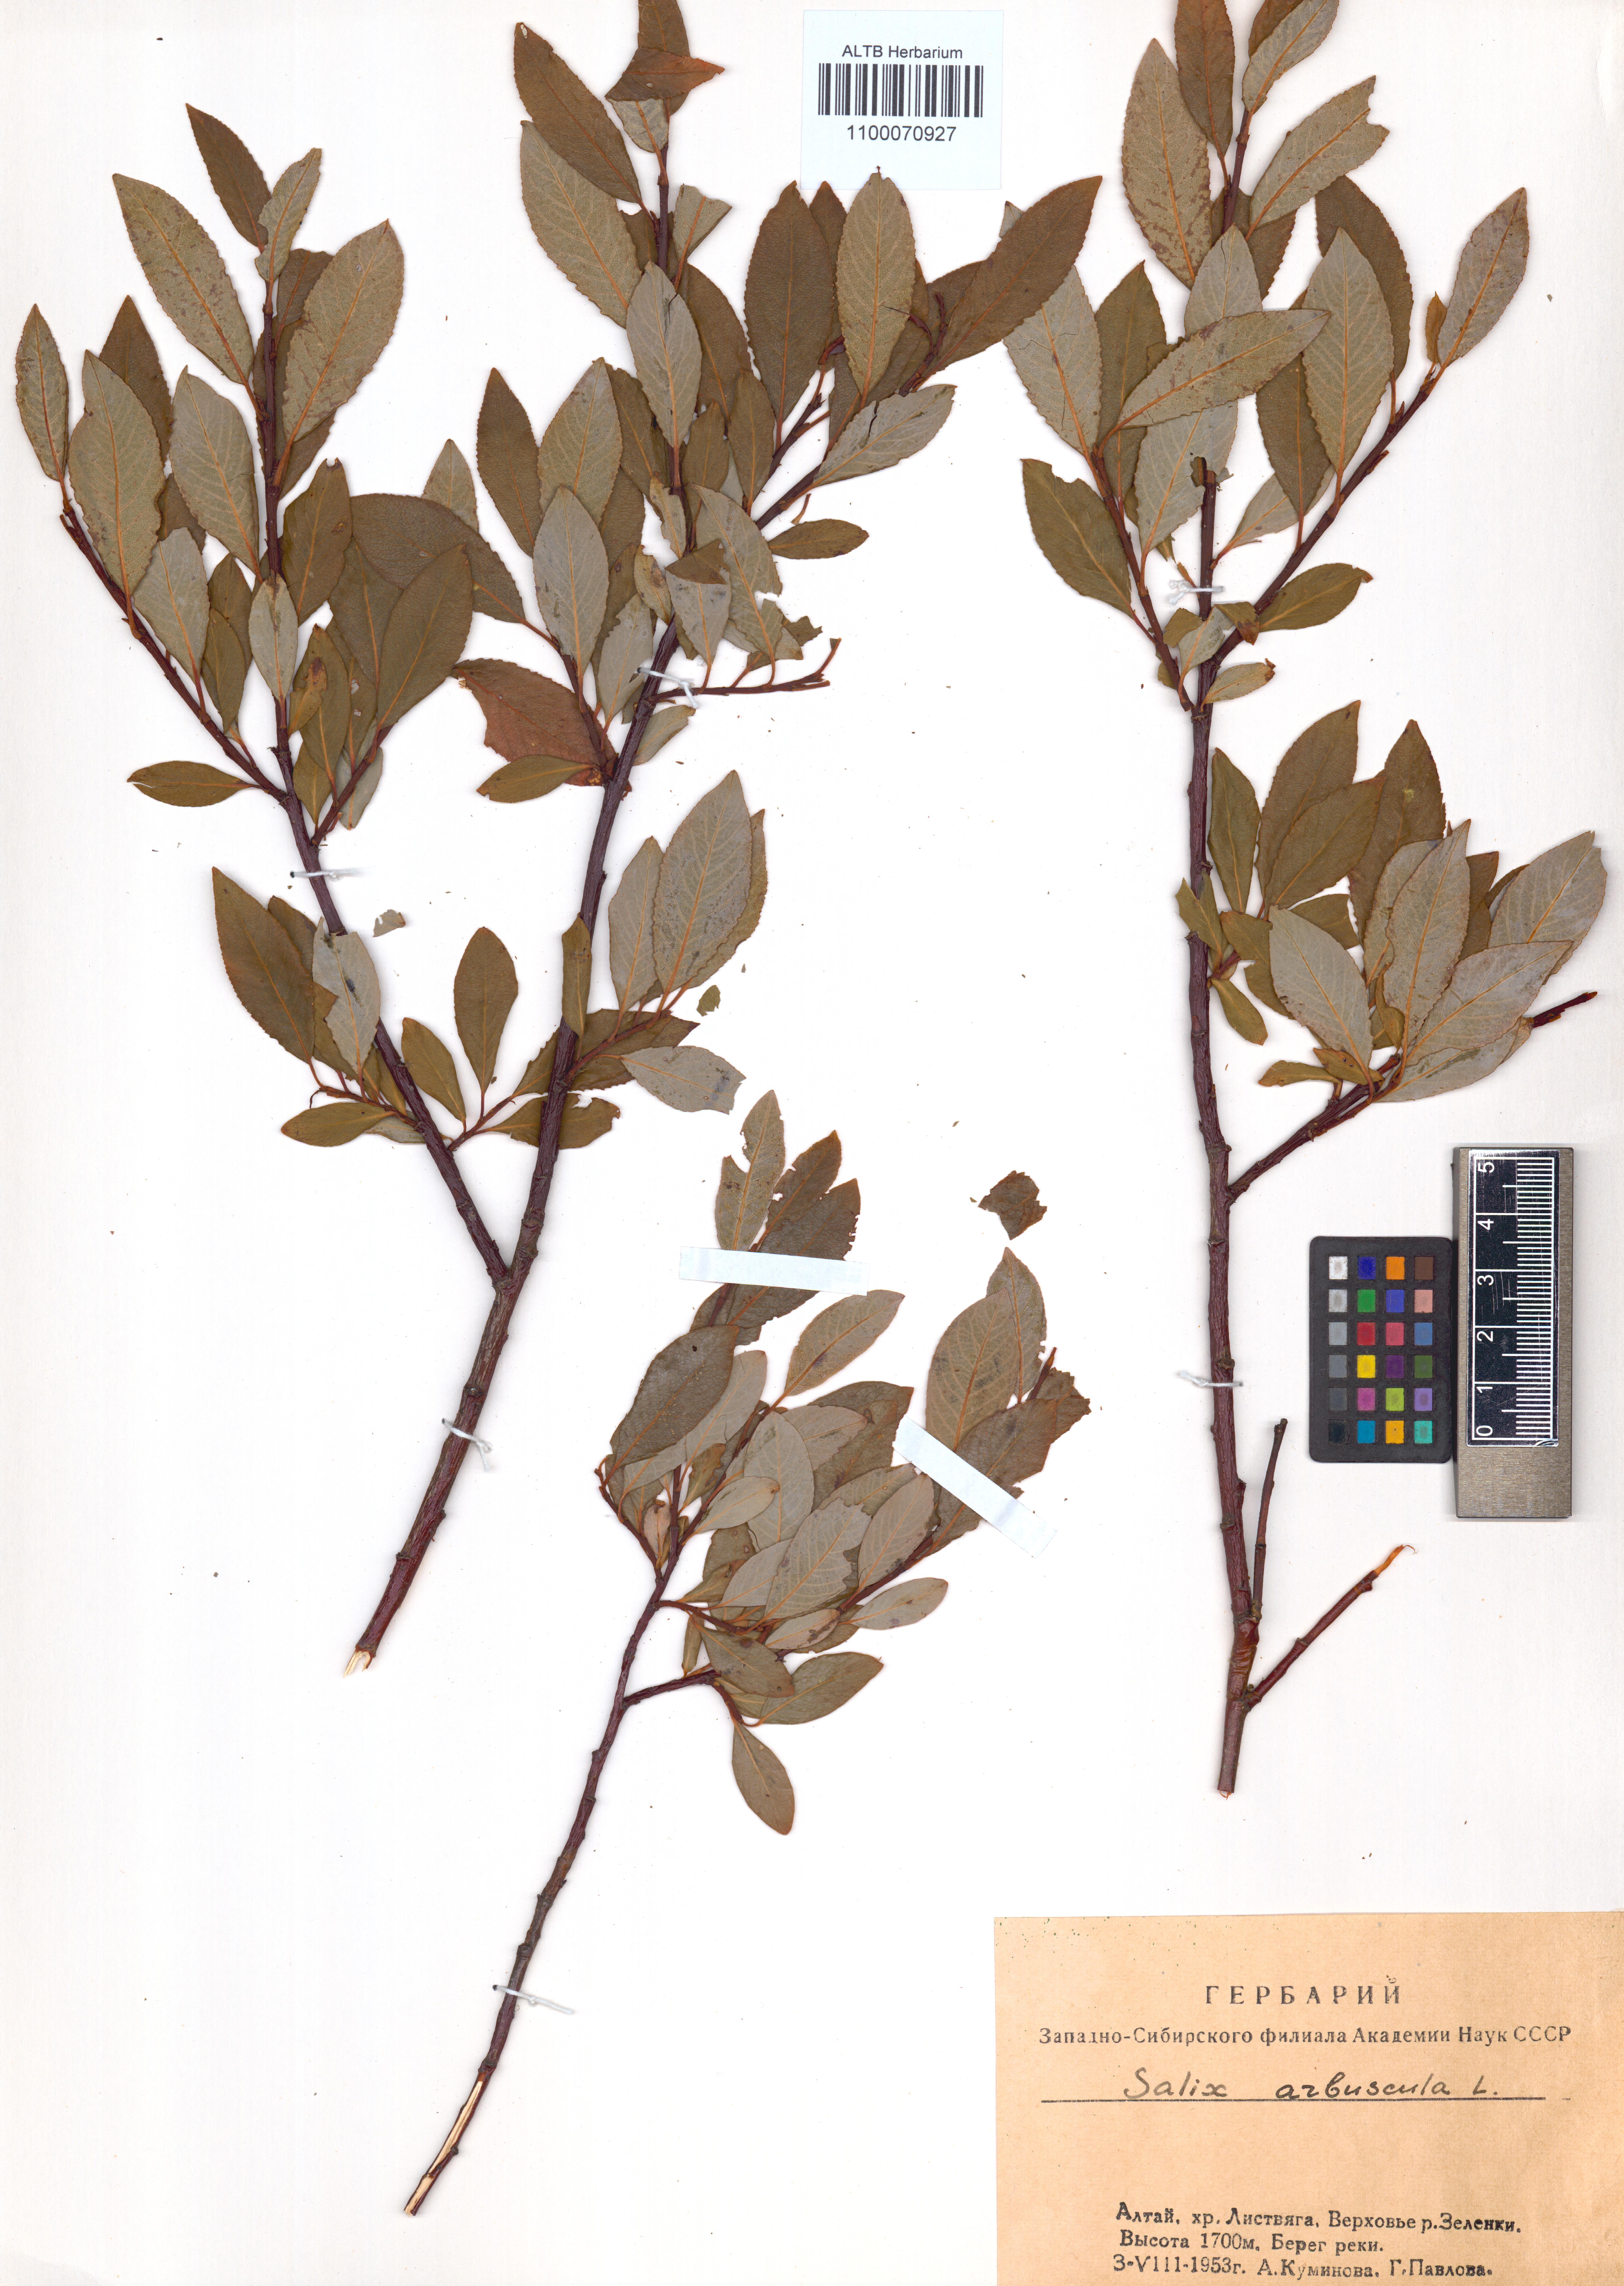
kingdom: Plantae
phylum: Tracheophyta
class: Magnoliopsida
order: Malpighiales
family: Salicaceae
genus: Salix
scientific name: Salix arbuscula
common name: Mountain willow
